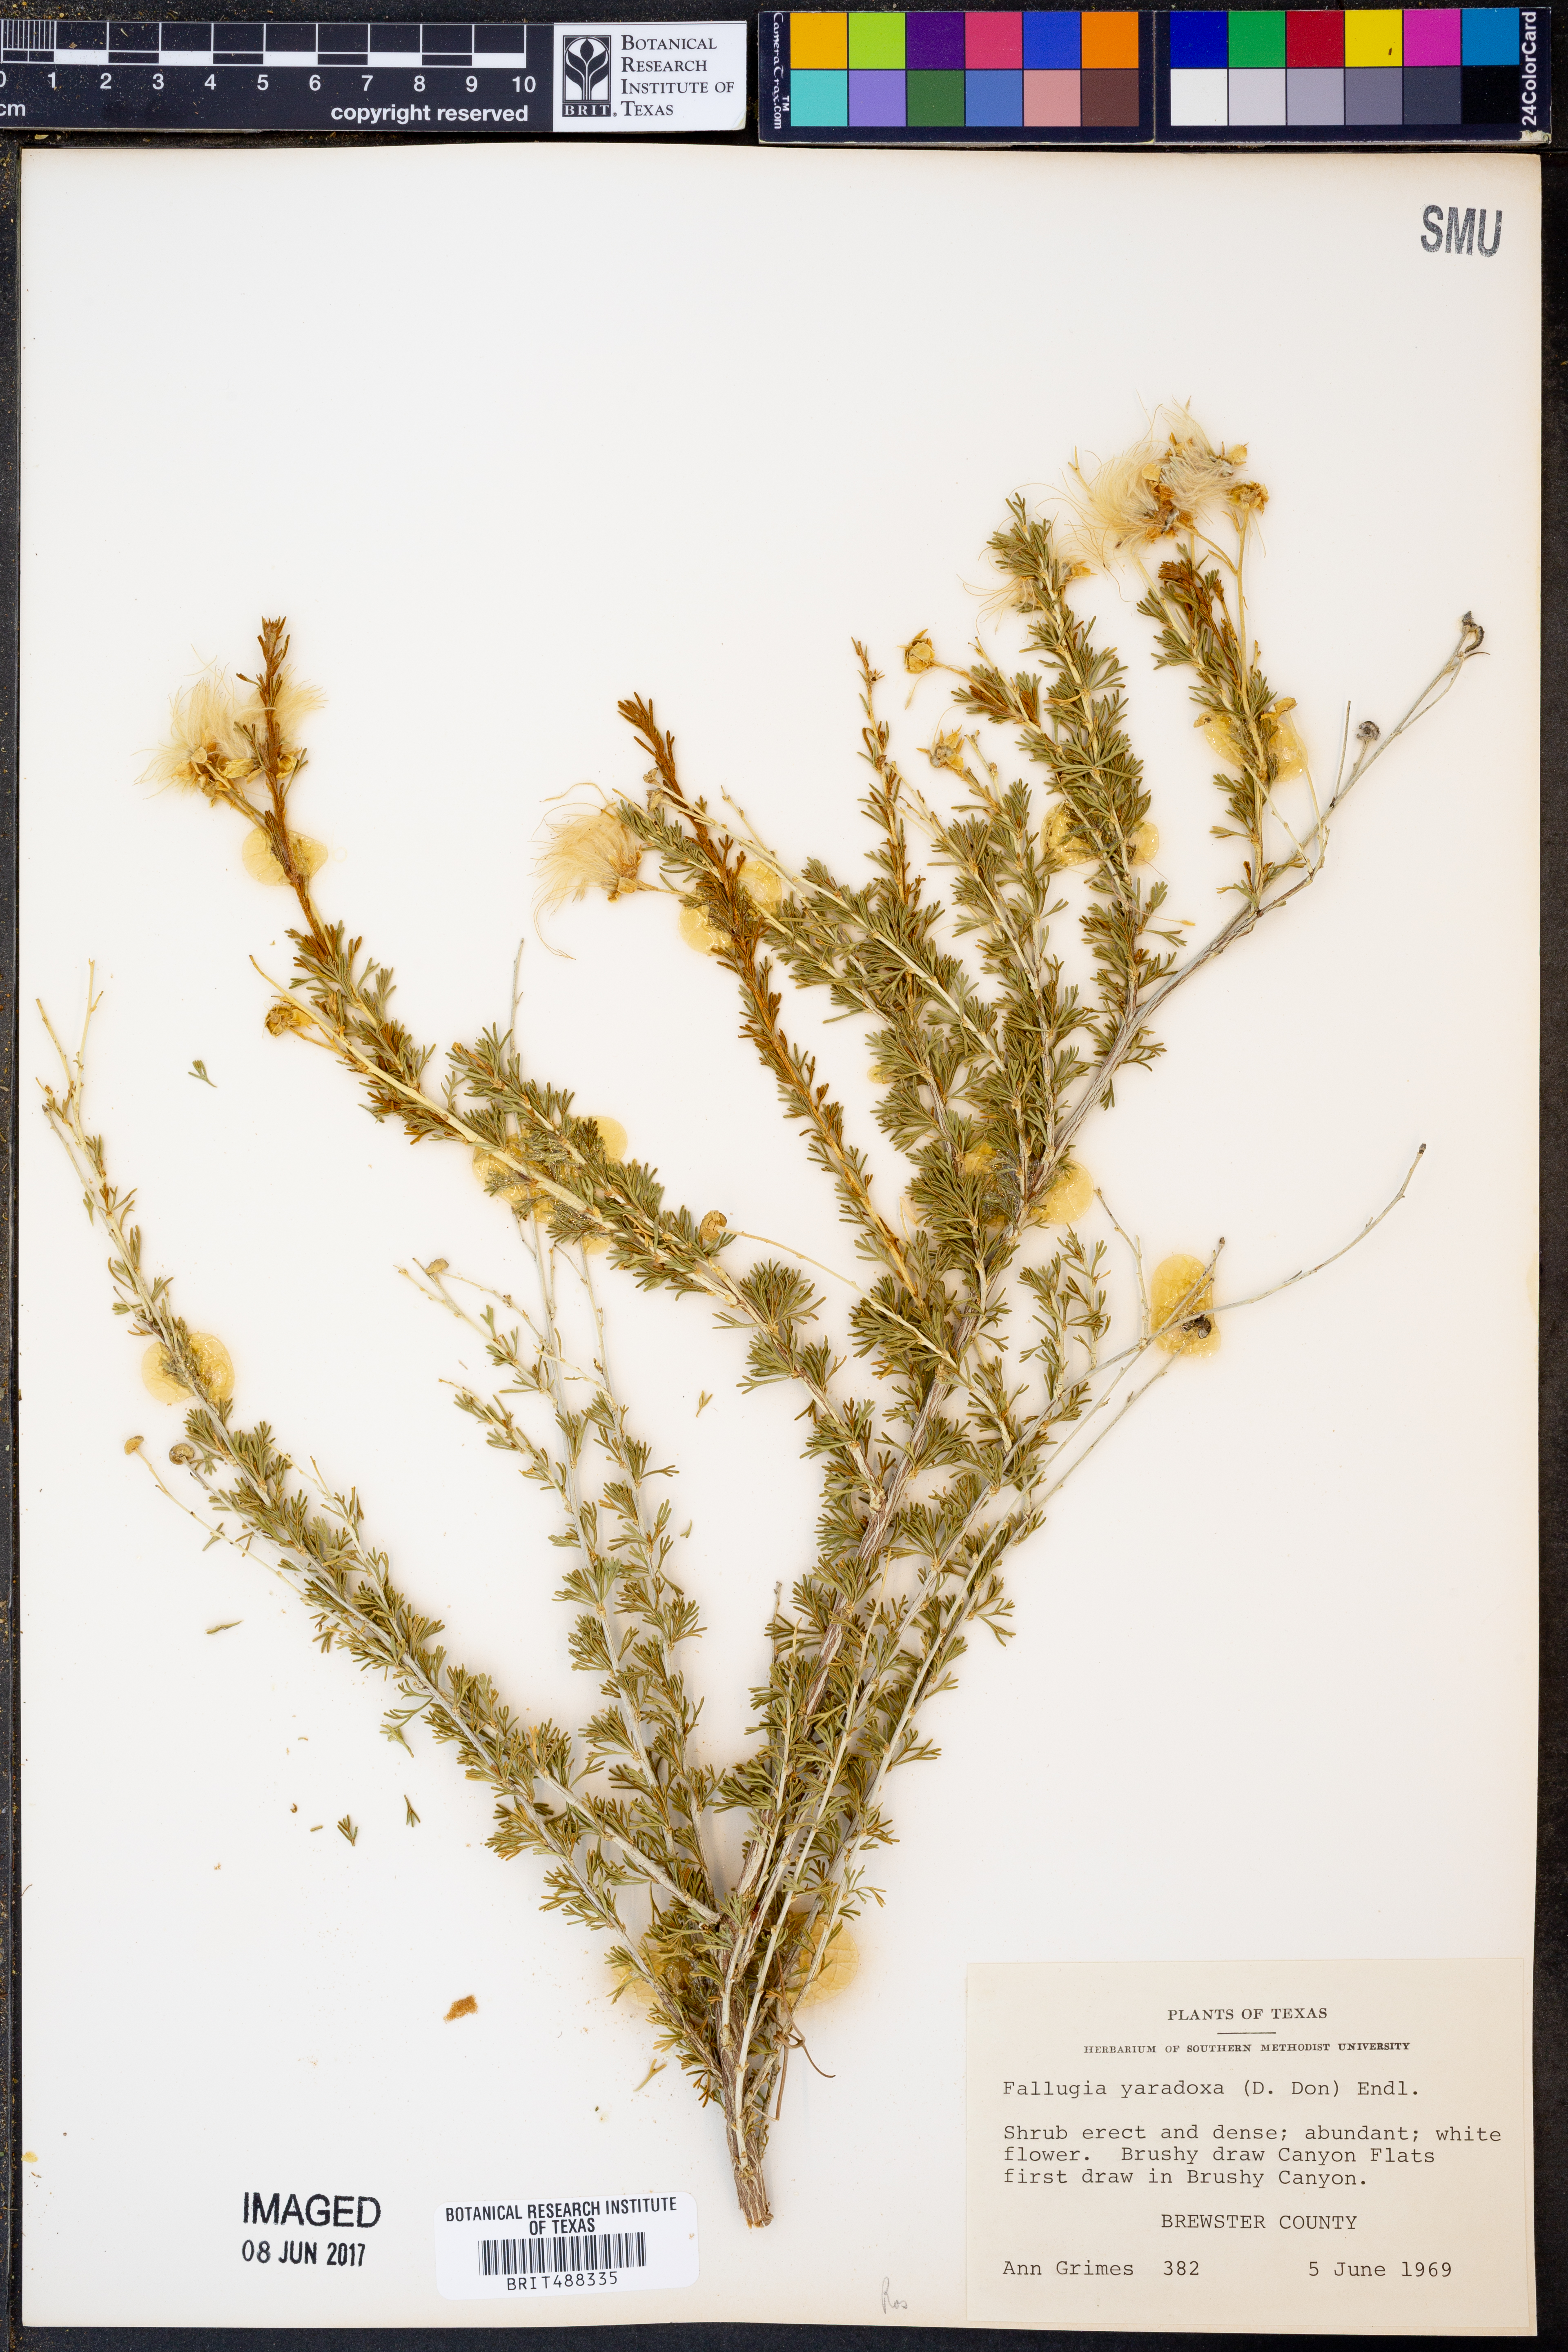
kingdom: Plantae
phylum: Tracheophyta
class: Magnoliopsida
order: Rosales
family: Rosaceae
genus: Fallugia
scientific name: Fallugia paradoxa
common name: Apache-plume
